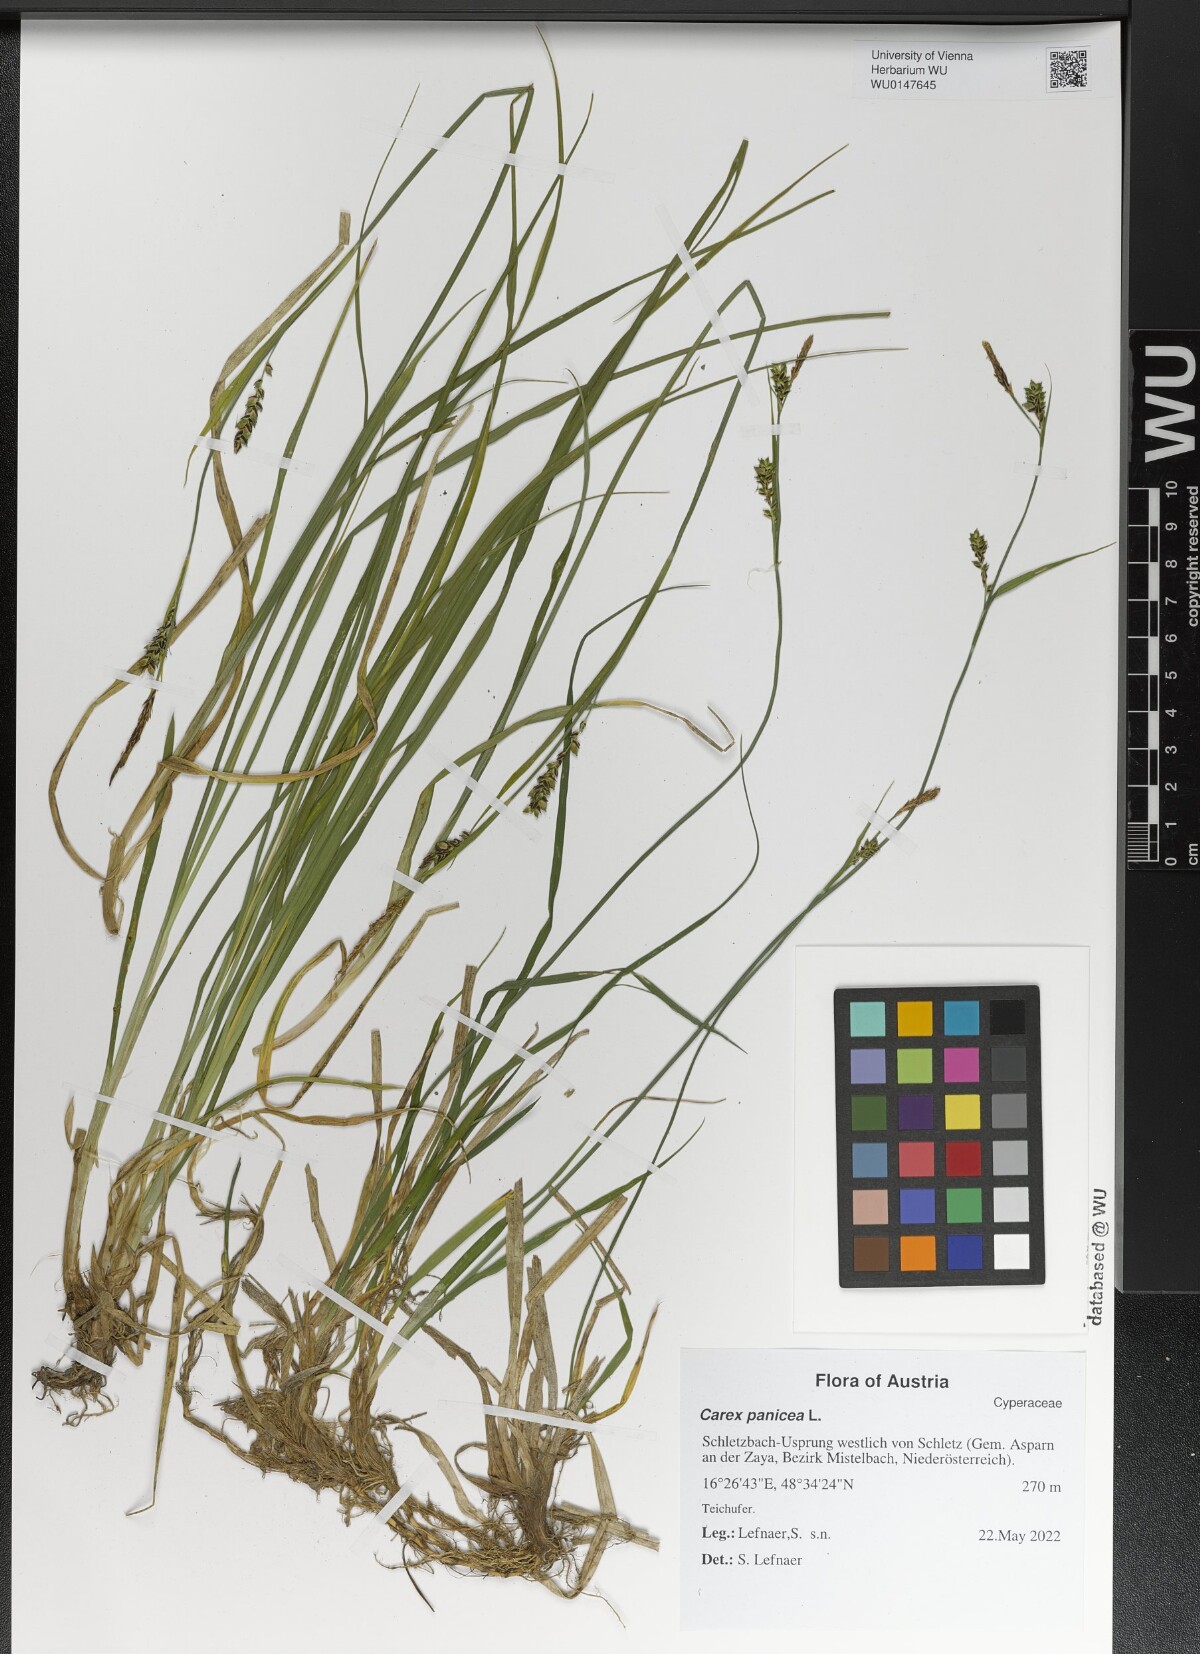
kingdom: Plantae
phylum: Tracheophyta
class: Liliopsida
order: Poales
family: Cyperaceae
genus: Carex
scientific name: Carex panicea
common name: Carnation sedge
